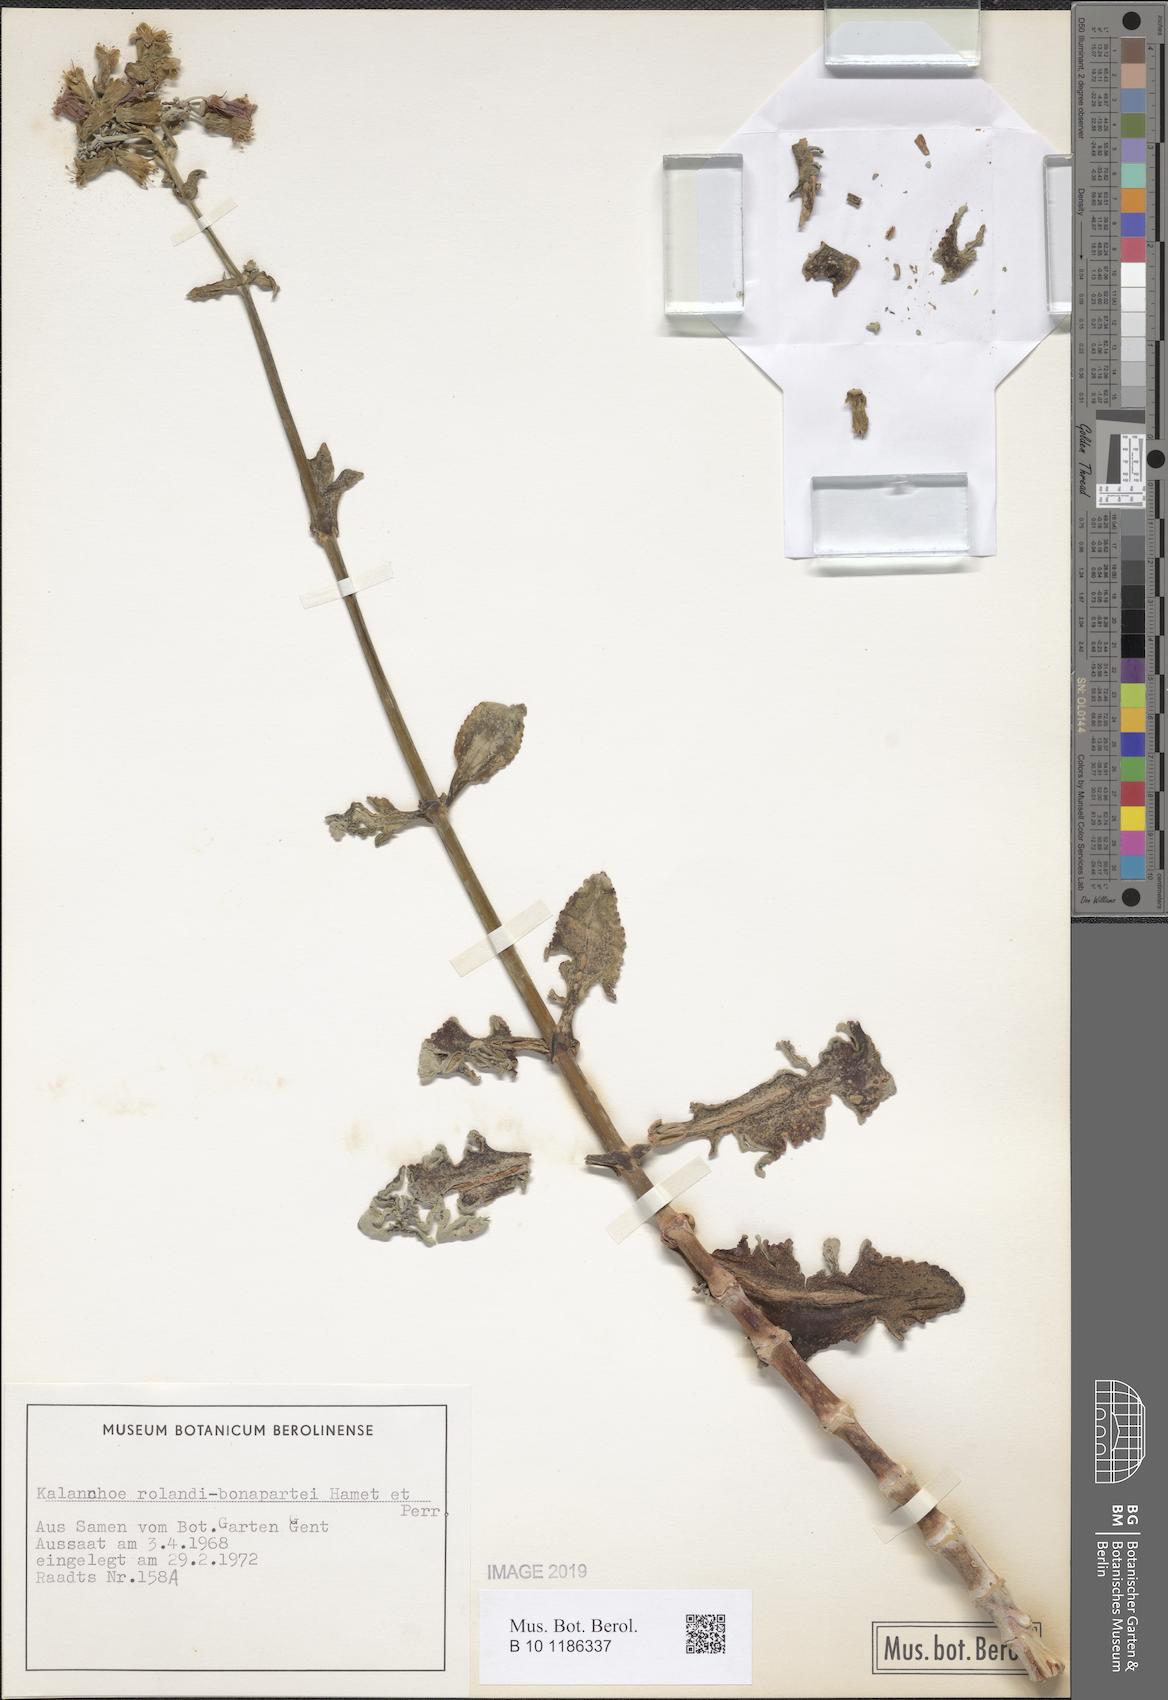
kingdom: Plantae
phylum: Tracheophyta
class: Magnoliopsida
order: Saxifragales
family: Crassulaceae
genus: Kalanchoe
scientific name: Kalanchoe rolandi-bonapartei
